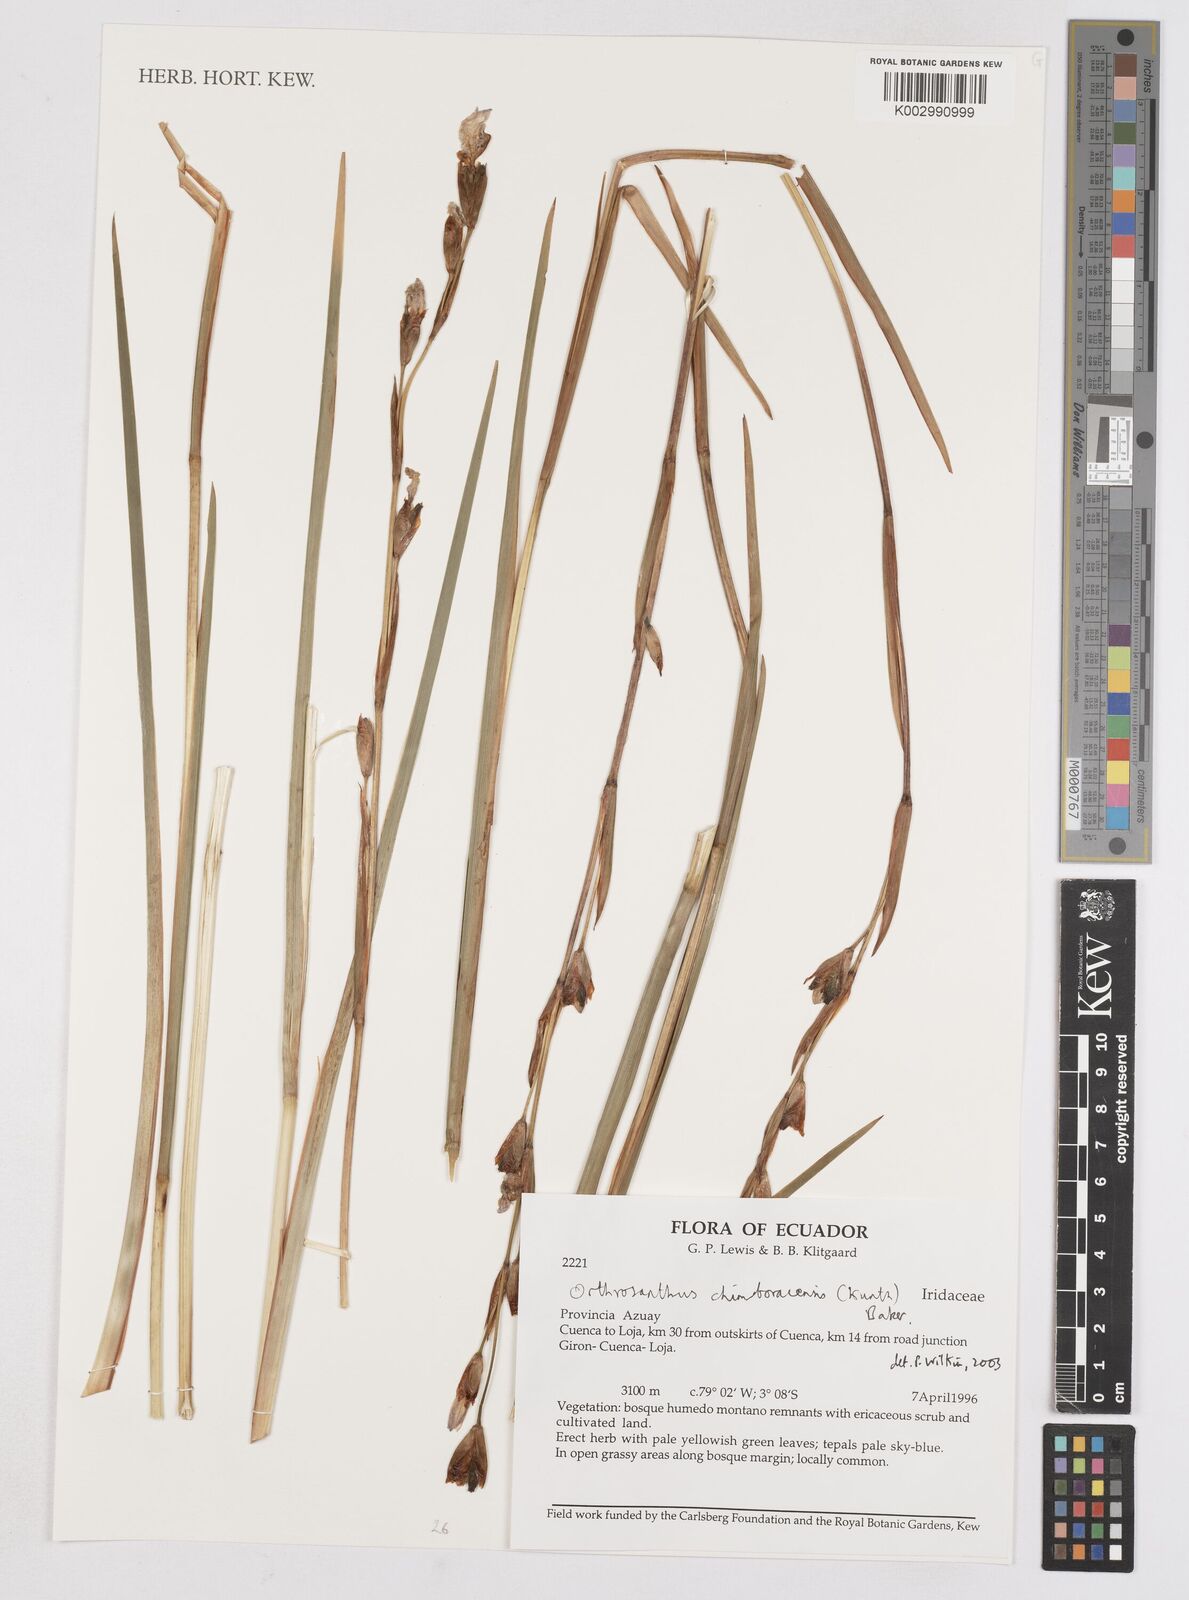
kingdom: Plantae
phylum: Tracheophyta
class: Liliopsida
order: Asparagales
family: Iridaceae
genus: Orthrosanthus
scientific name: Orthrosanthus chimboracensis
